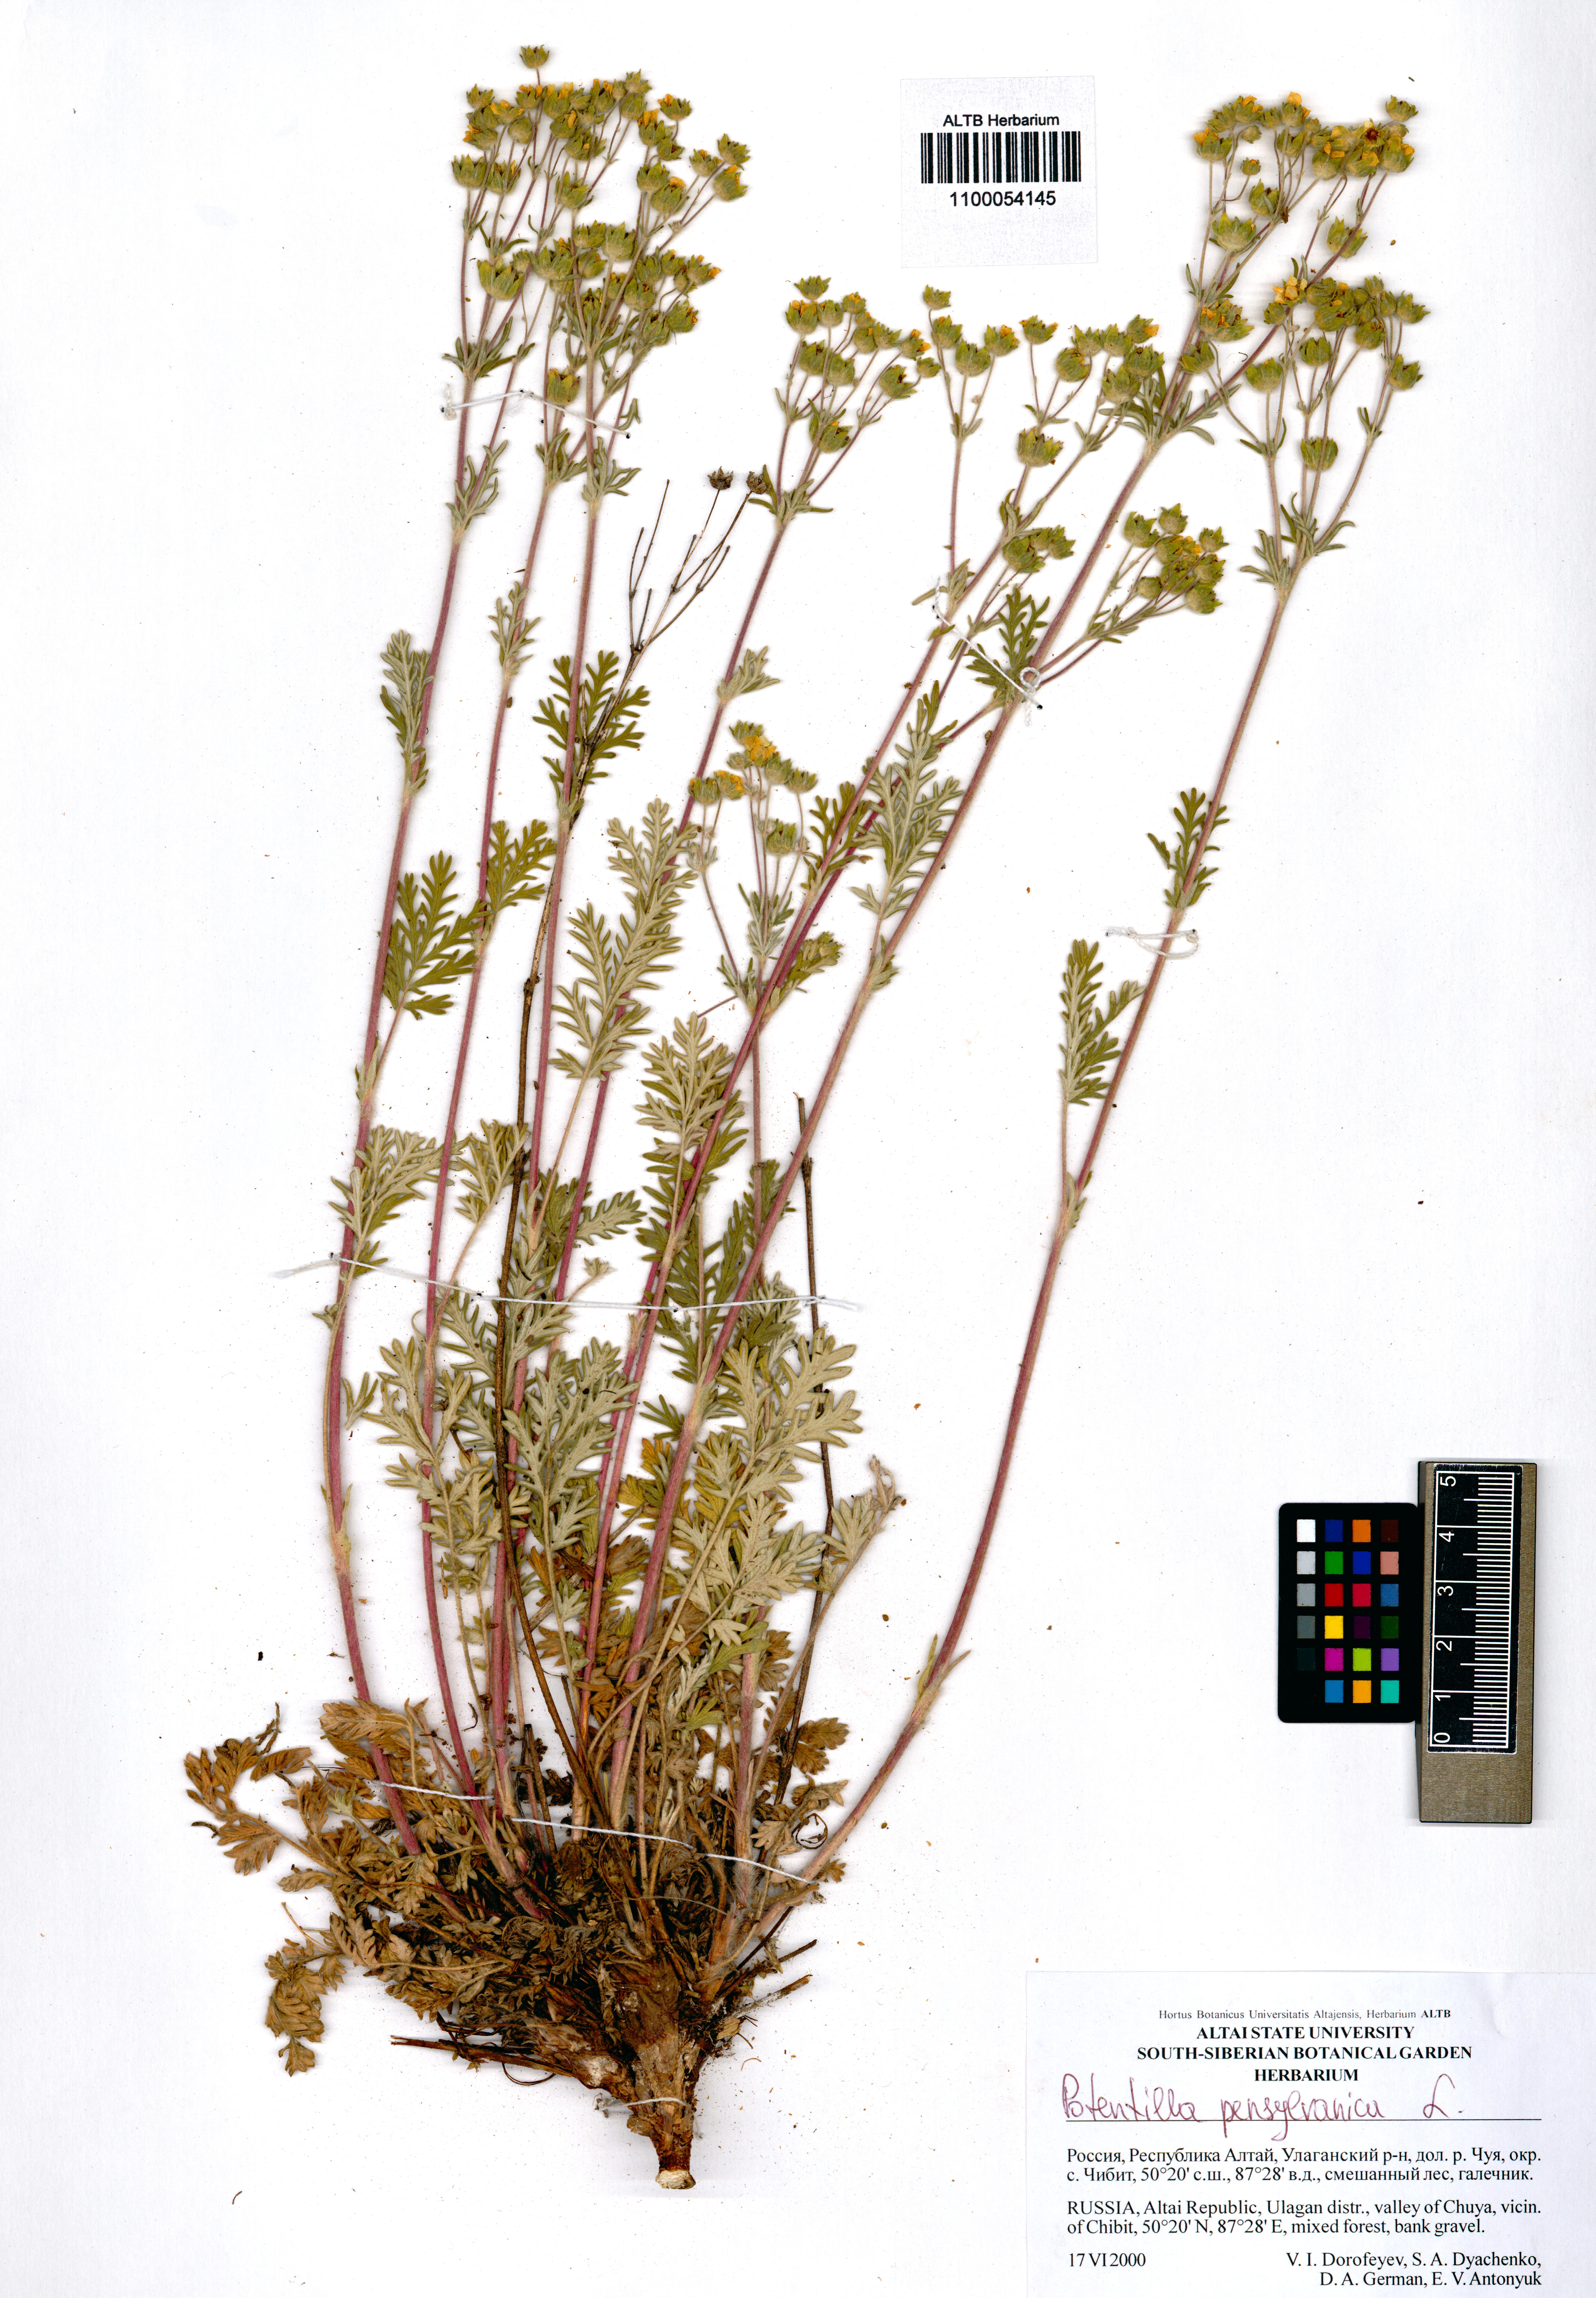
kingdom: Plantae
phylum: Tracheophyta
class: Magnoliopsida
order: Rosales
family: Rosaceae
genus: Potentilla
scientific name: Potentilla pensylvanica
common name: Pennsylvania cinquefoil
